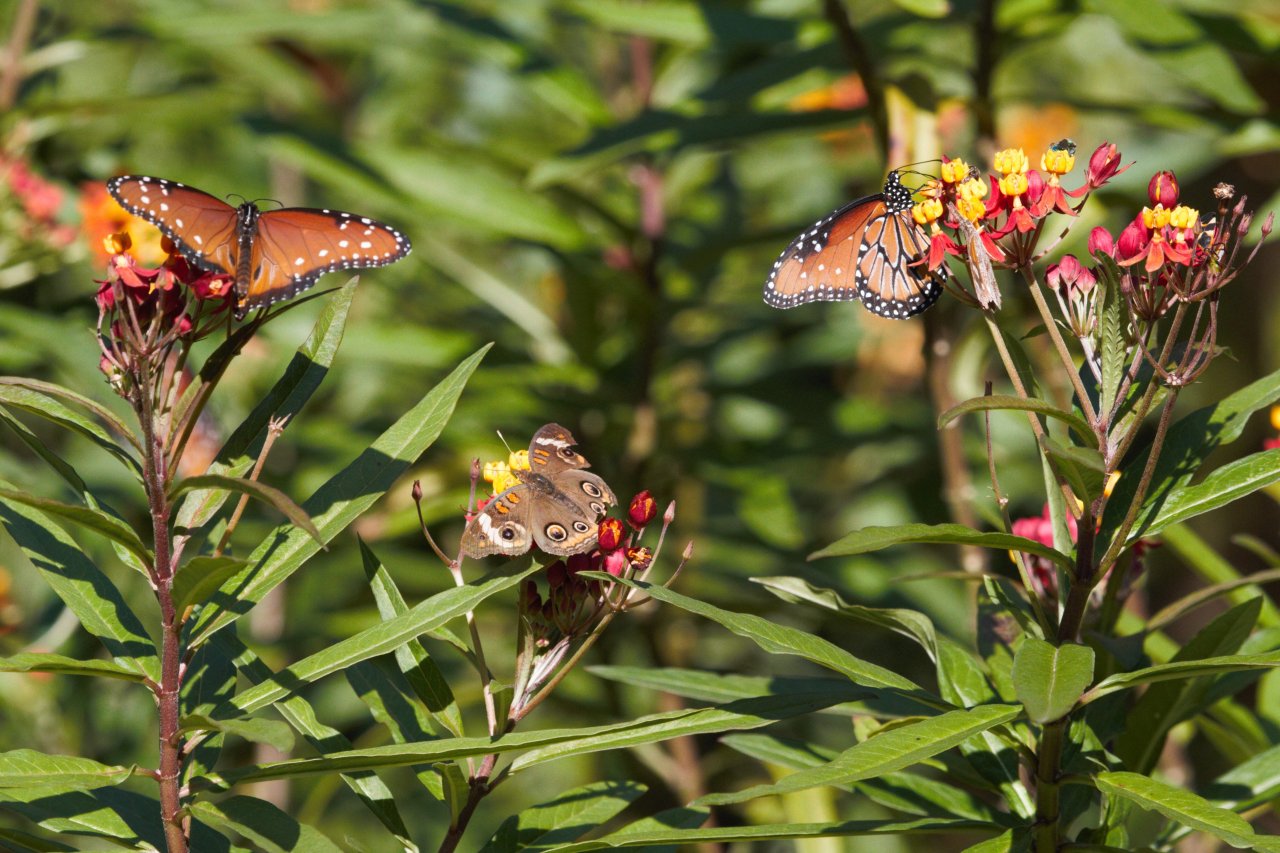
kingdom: Animalia
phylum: Arthropoda
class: Insecta
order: Lepidoptera
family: Nymphalidae
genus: Junonia
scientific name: Junonia coenia
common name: Common Buckeye
